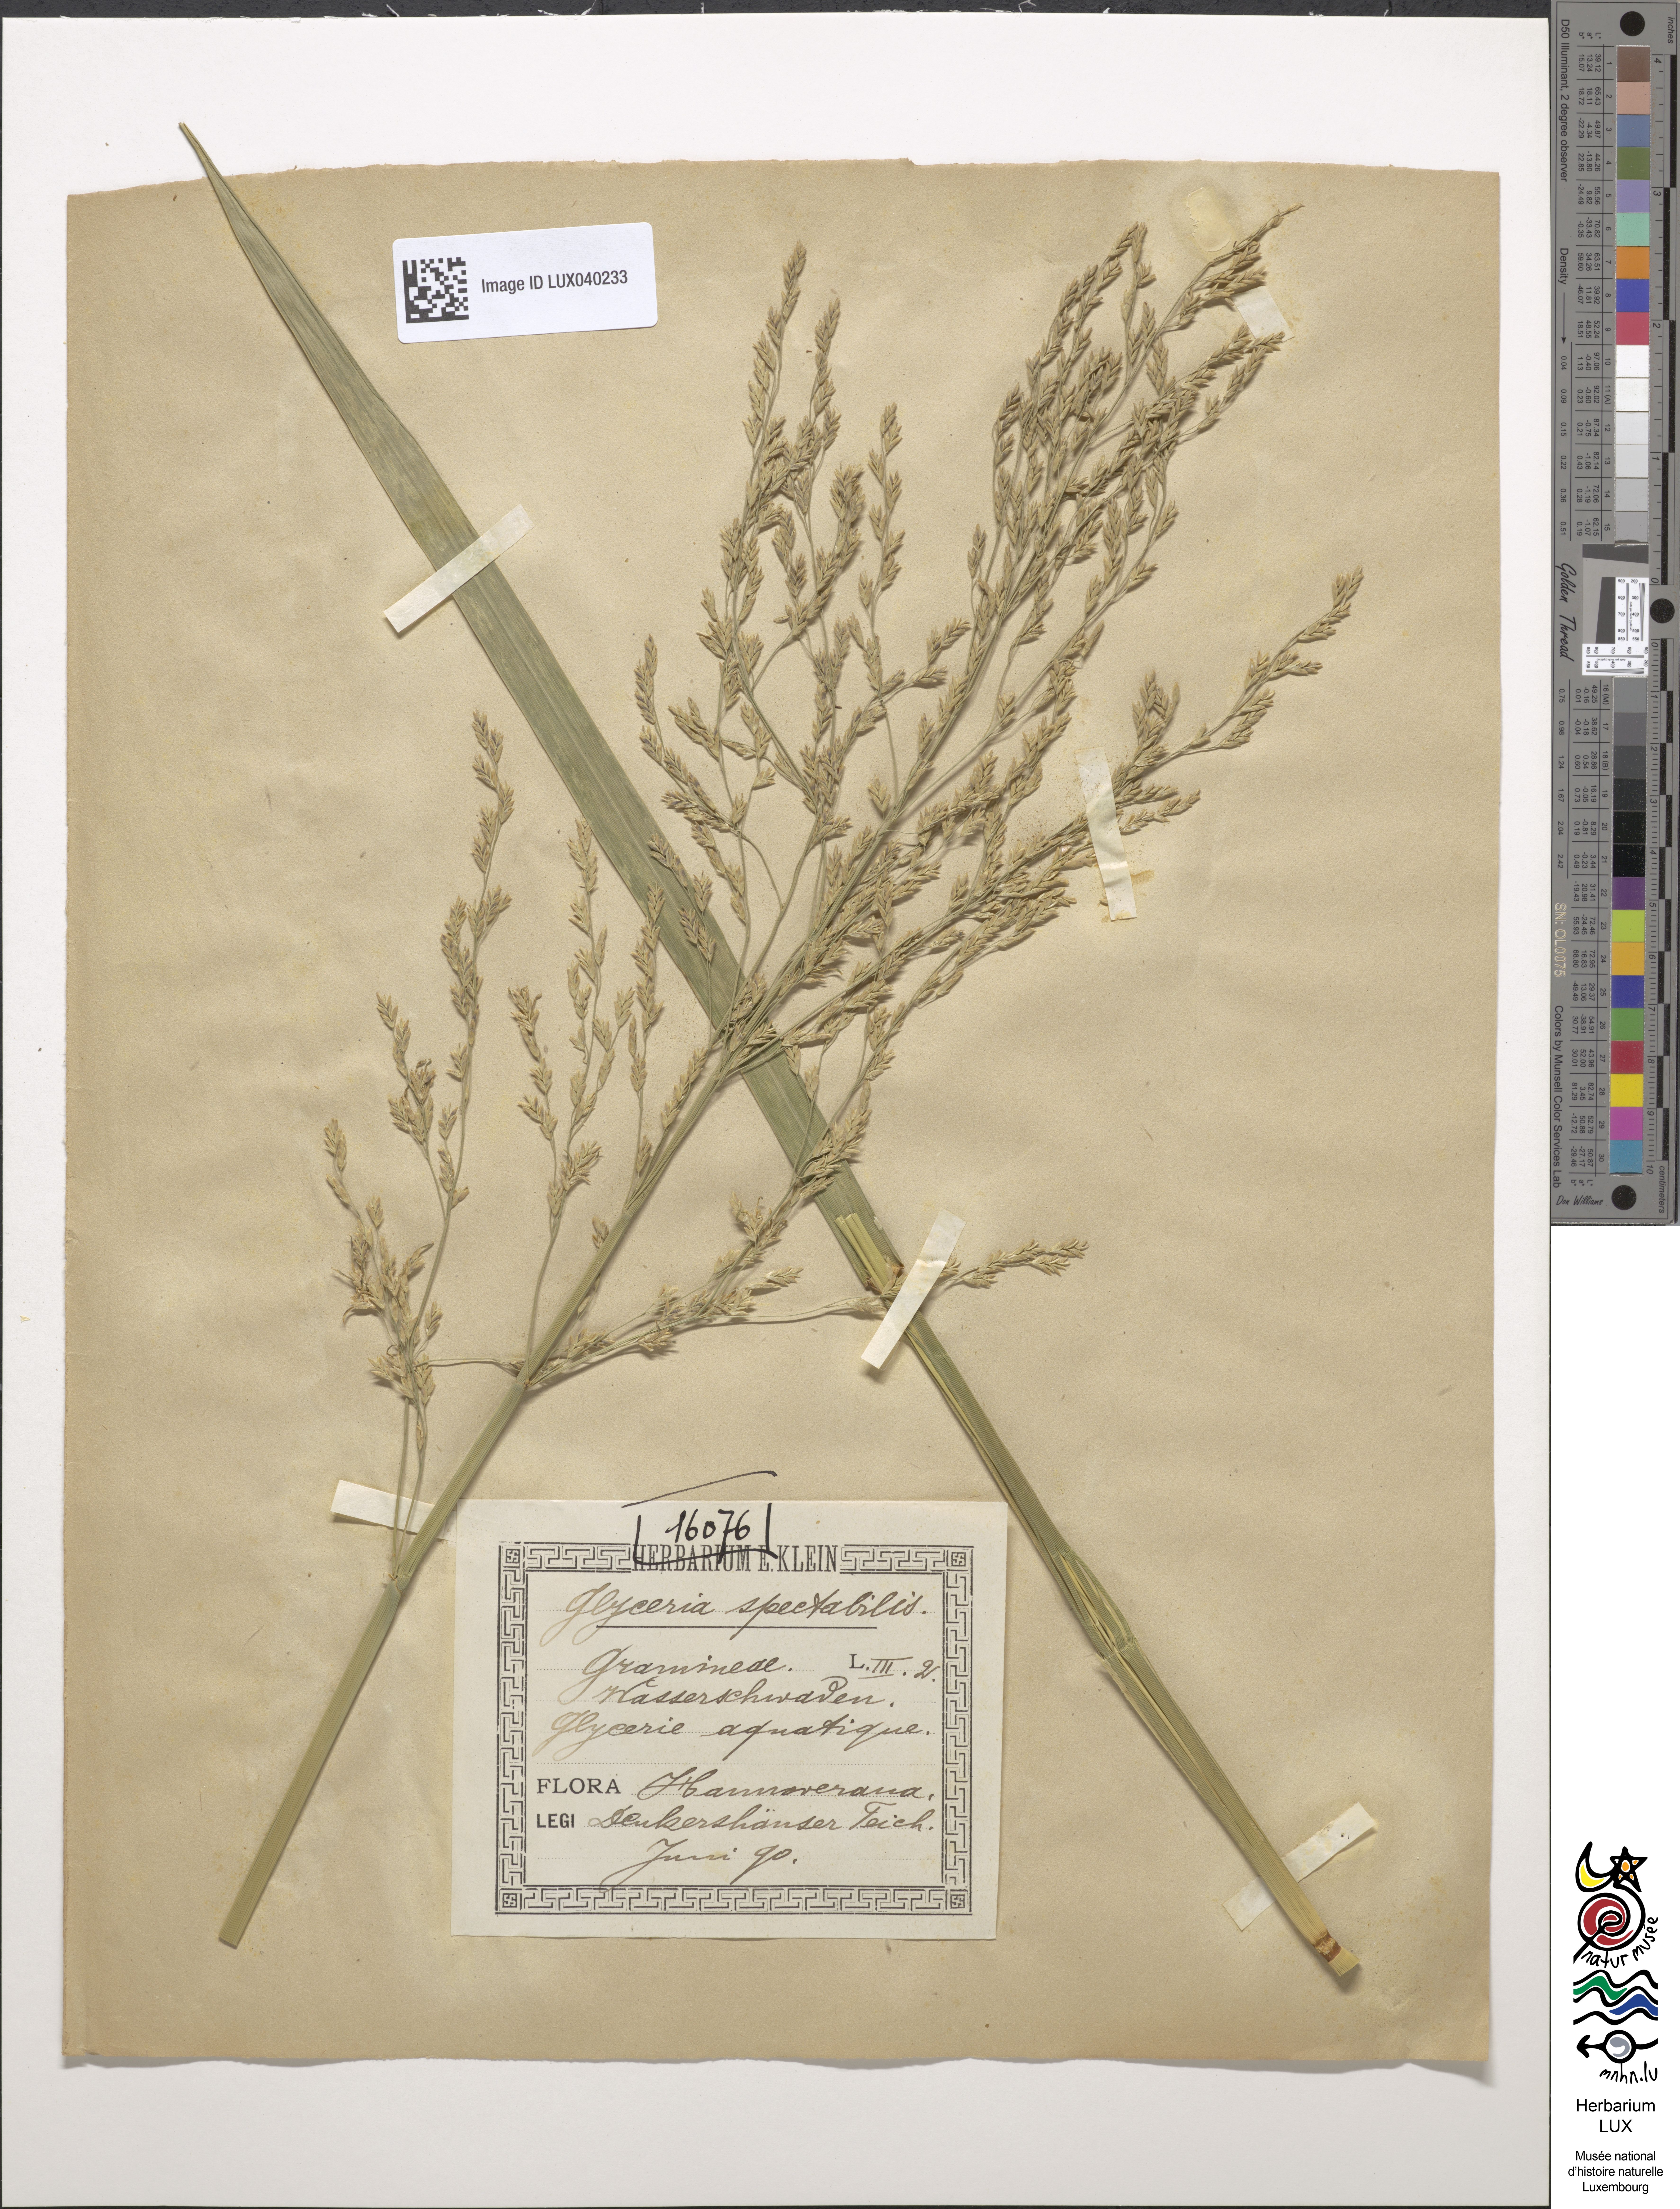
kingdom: Plantae
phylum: Tracheophyta
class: Liliopsida
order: Poales
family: Poaceae
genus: Glyceria
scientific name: Glyceria maxima
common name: Reed mannagrass
